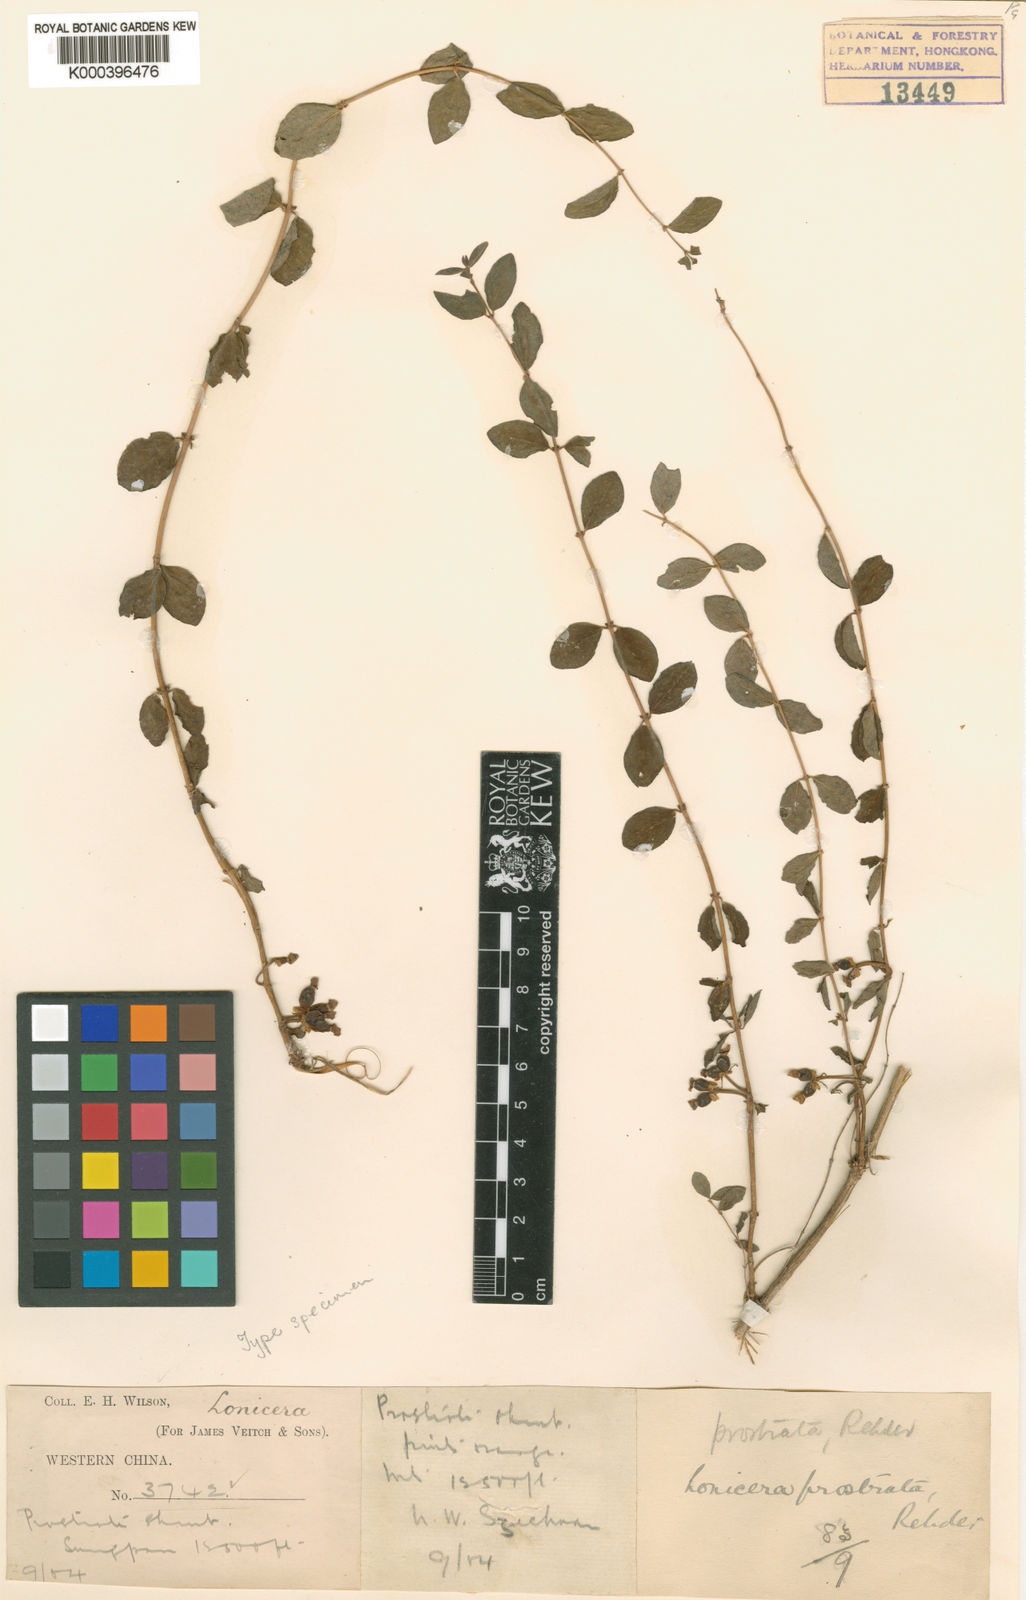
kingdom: Plantae
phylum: Tracheophyta
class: Magnoliopsida
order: Dipsacales
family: Caprifoliaceae
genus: Lonicera
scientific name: Lonicera trichosantha
